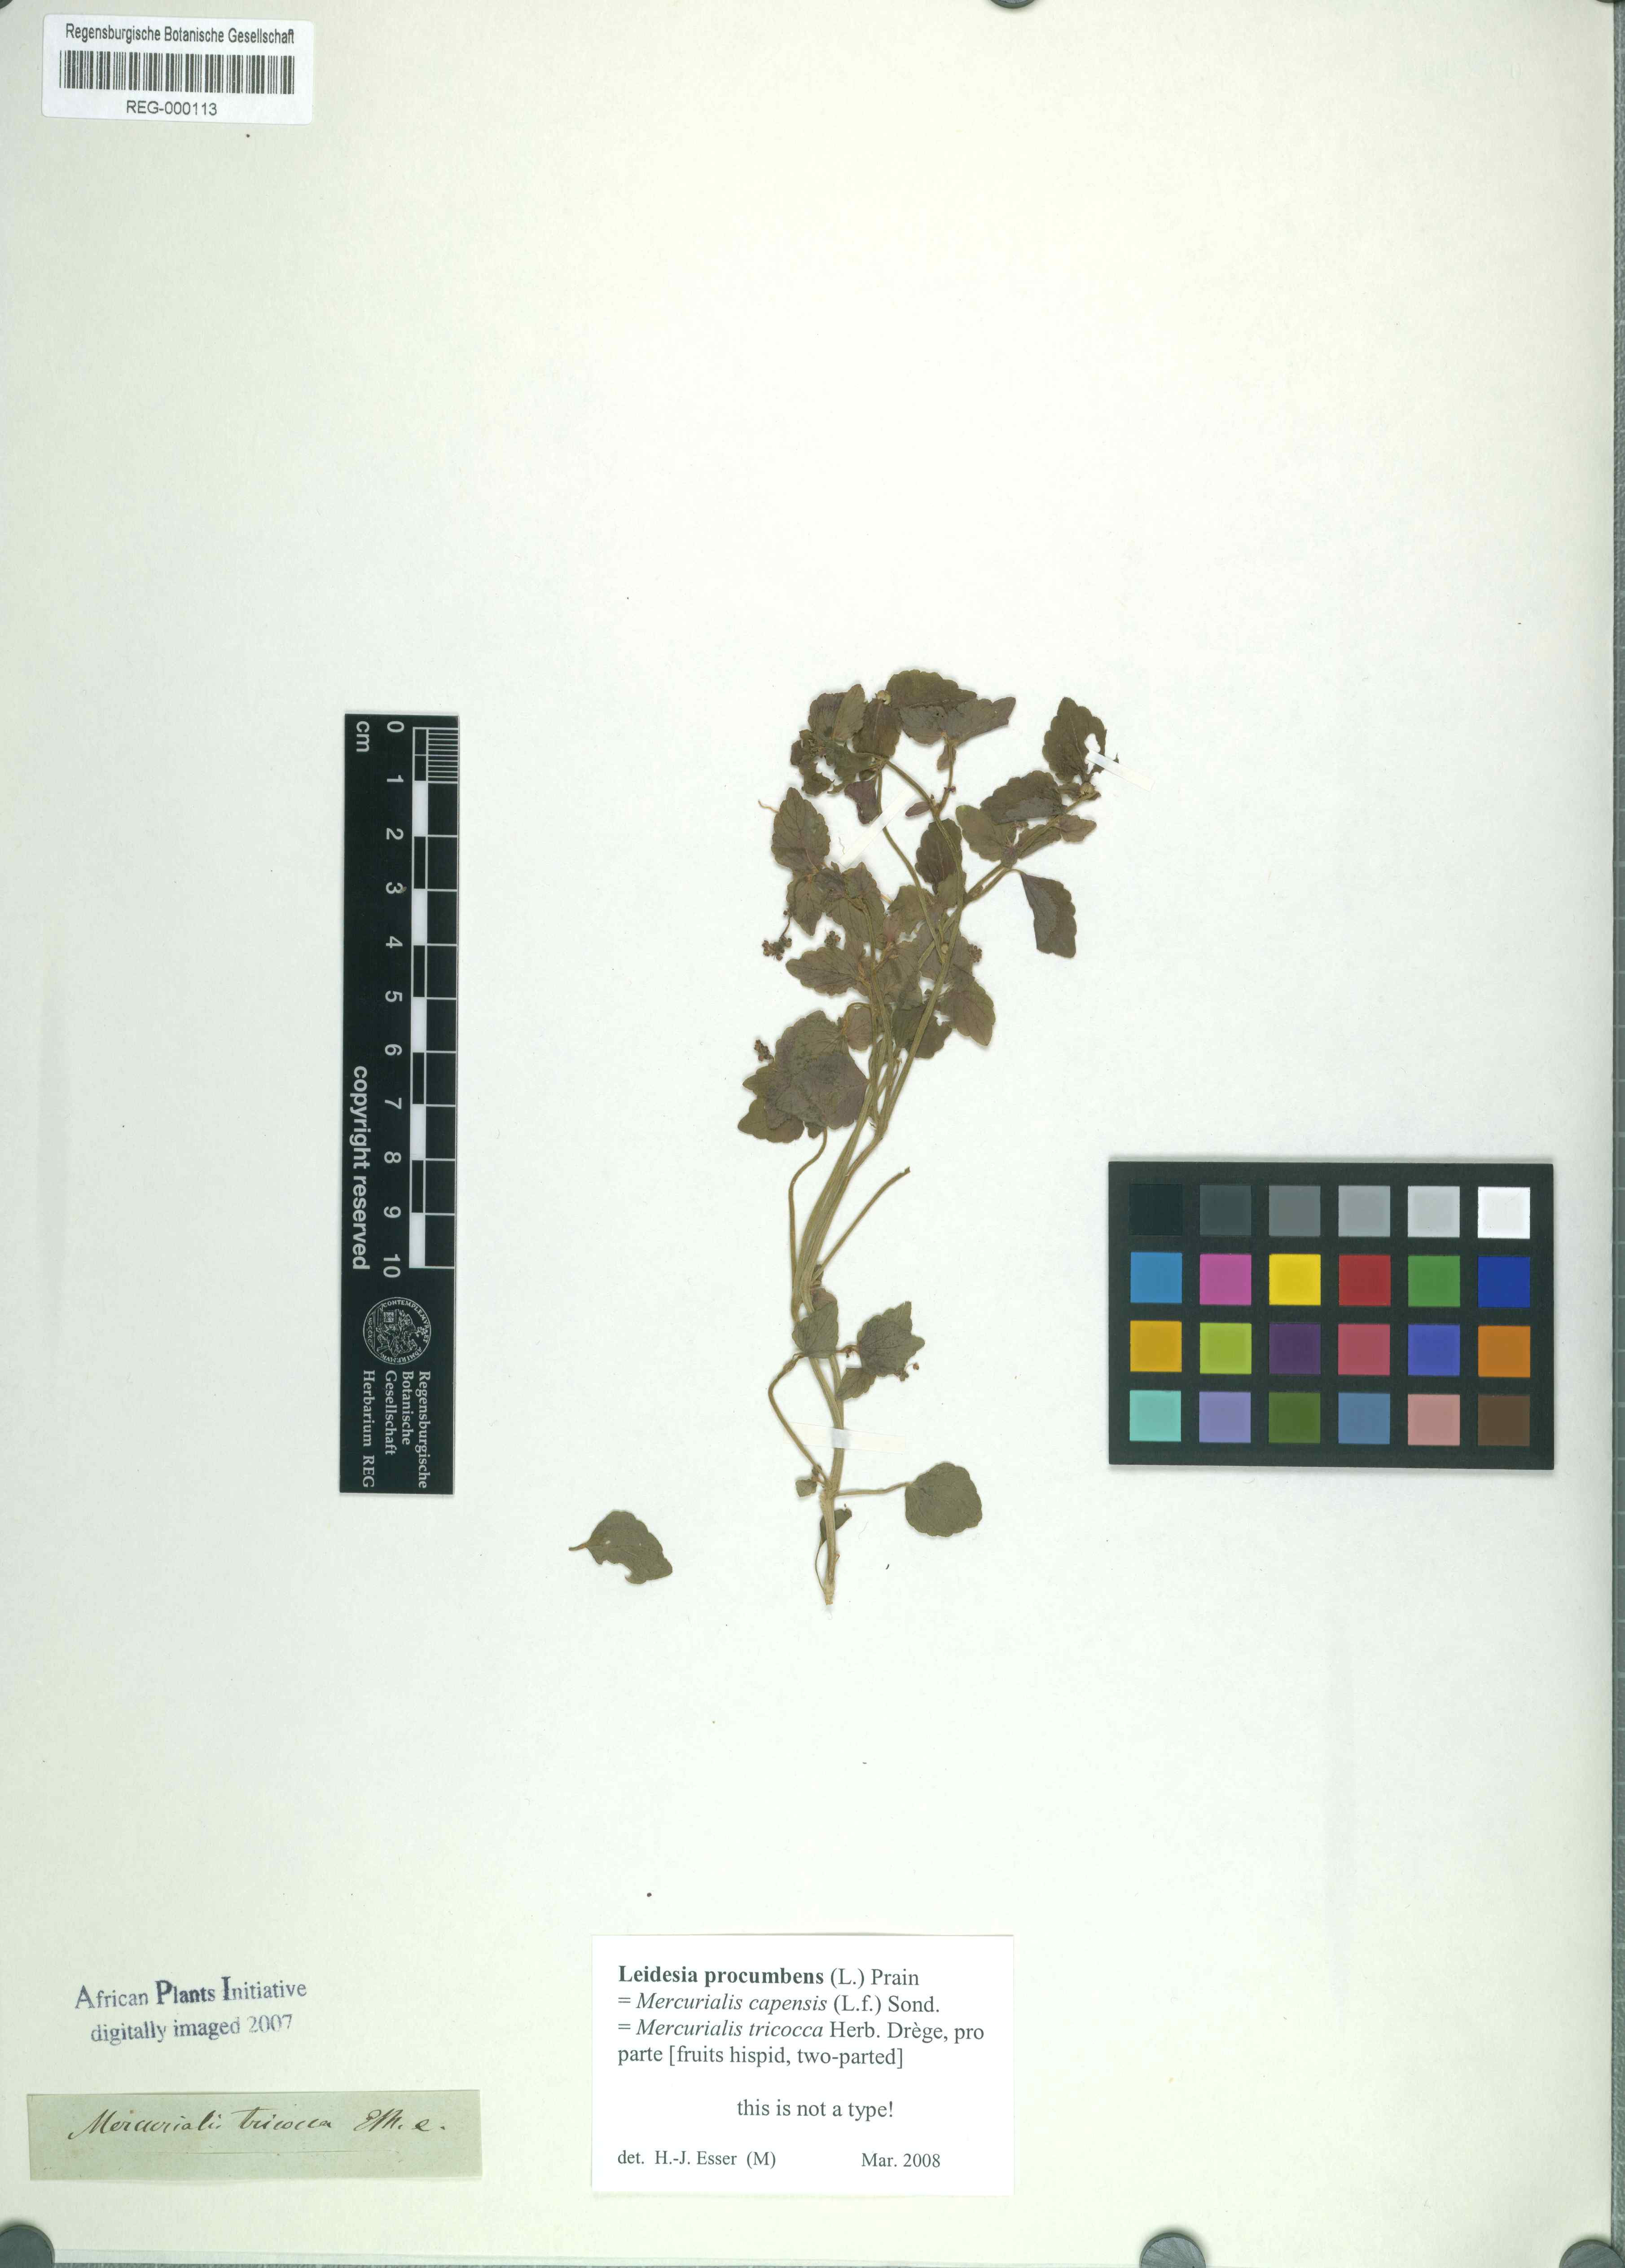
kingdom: Plantae
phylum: Tracheophyta
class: Magnoliopsida
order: Malpighiales
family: Euphorbiaceae
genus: Leidesia
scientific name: Leidesia procumbens
